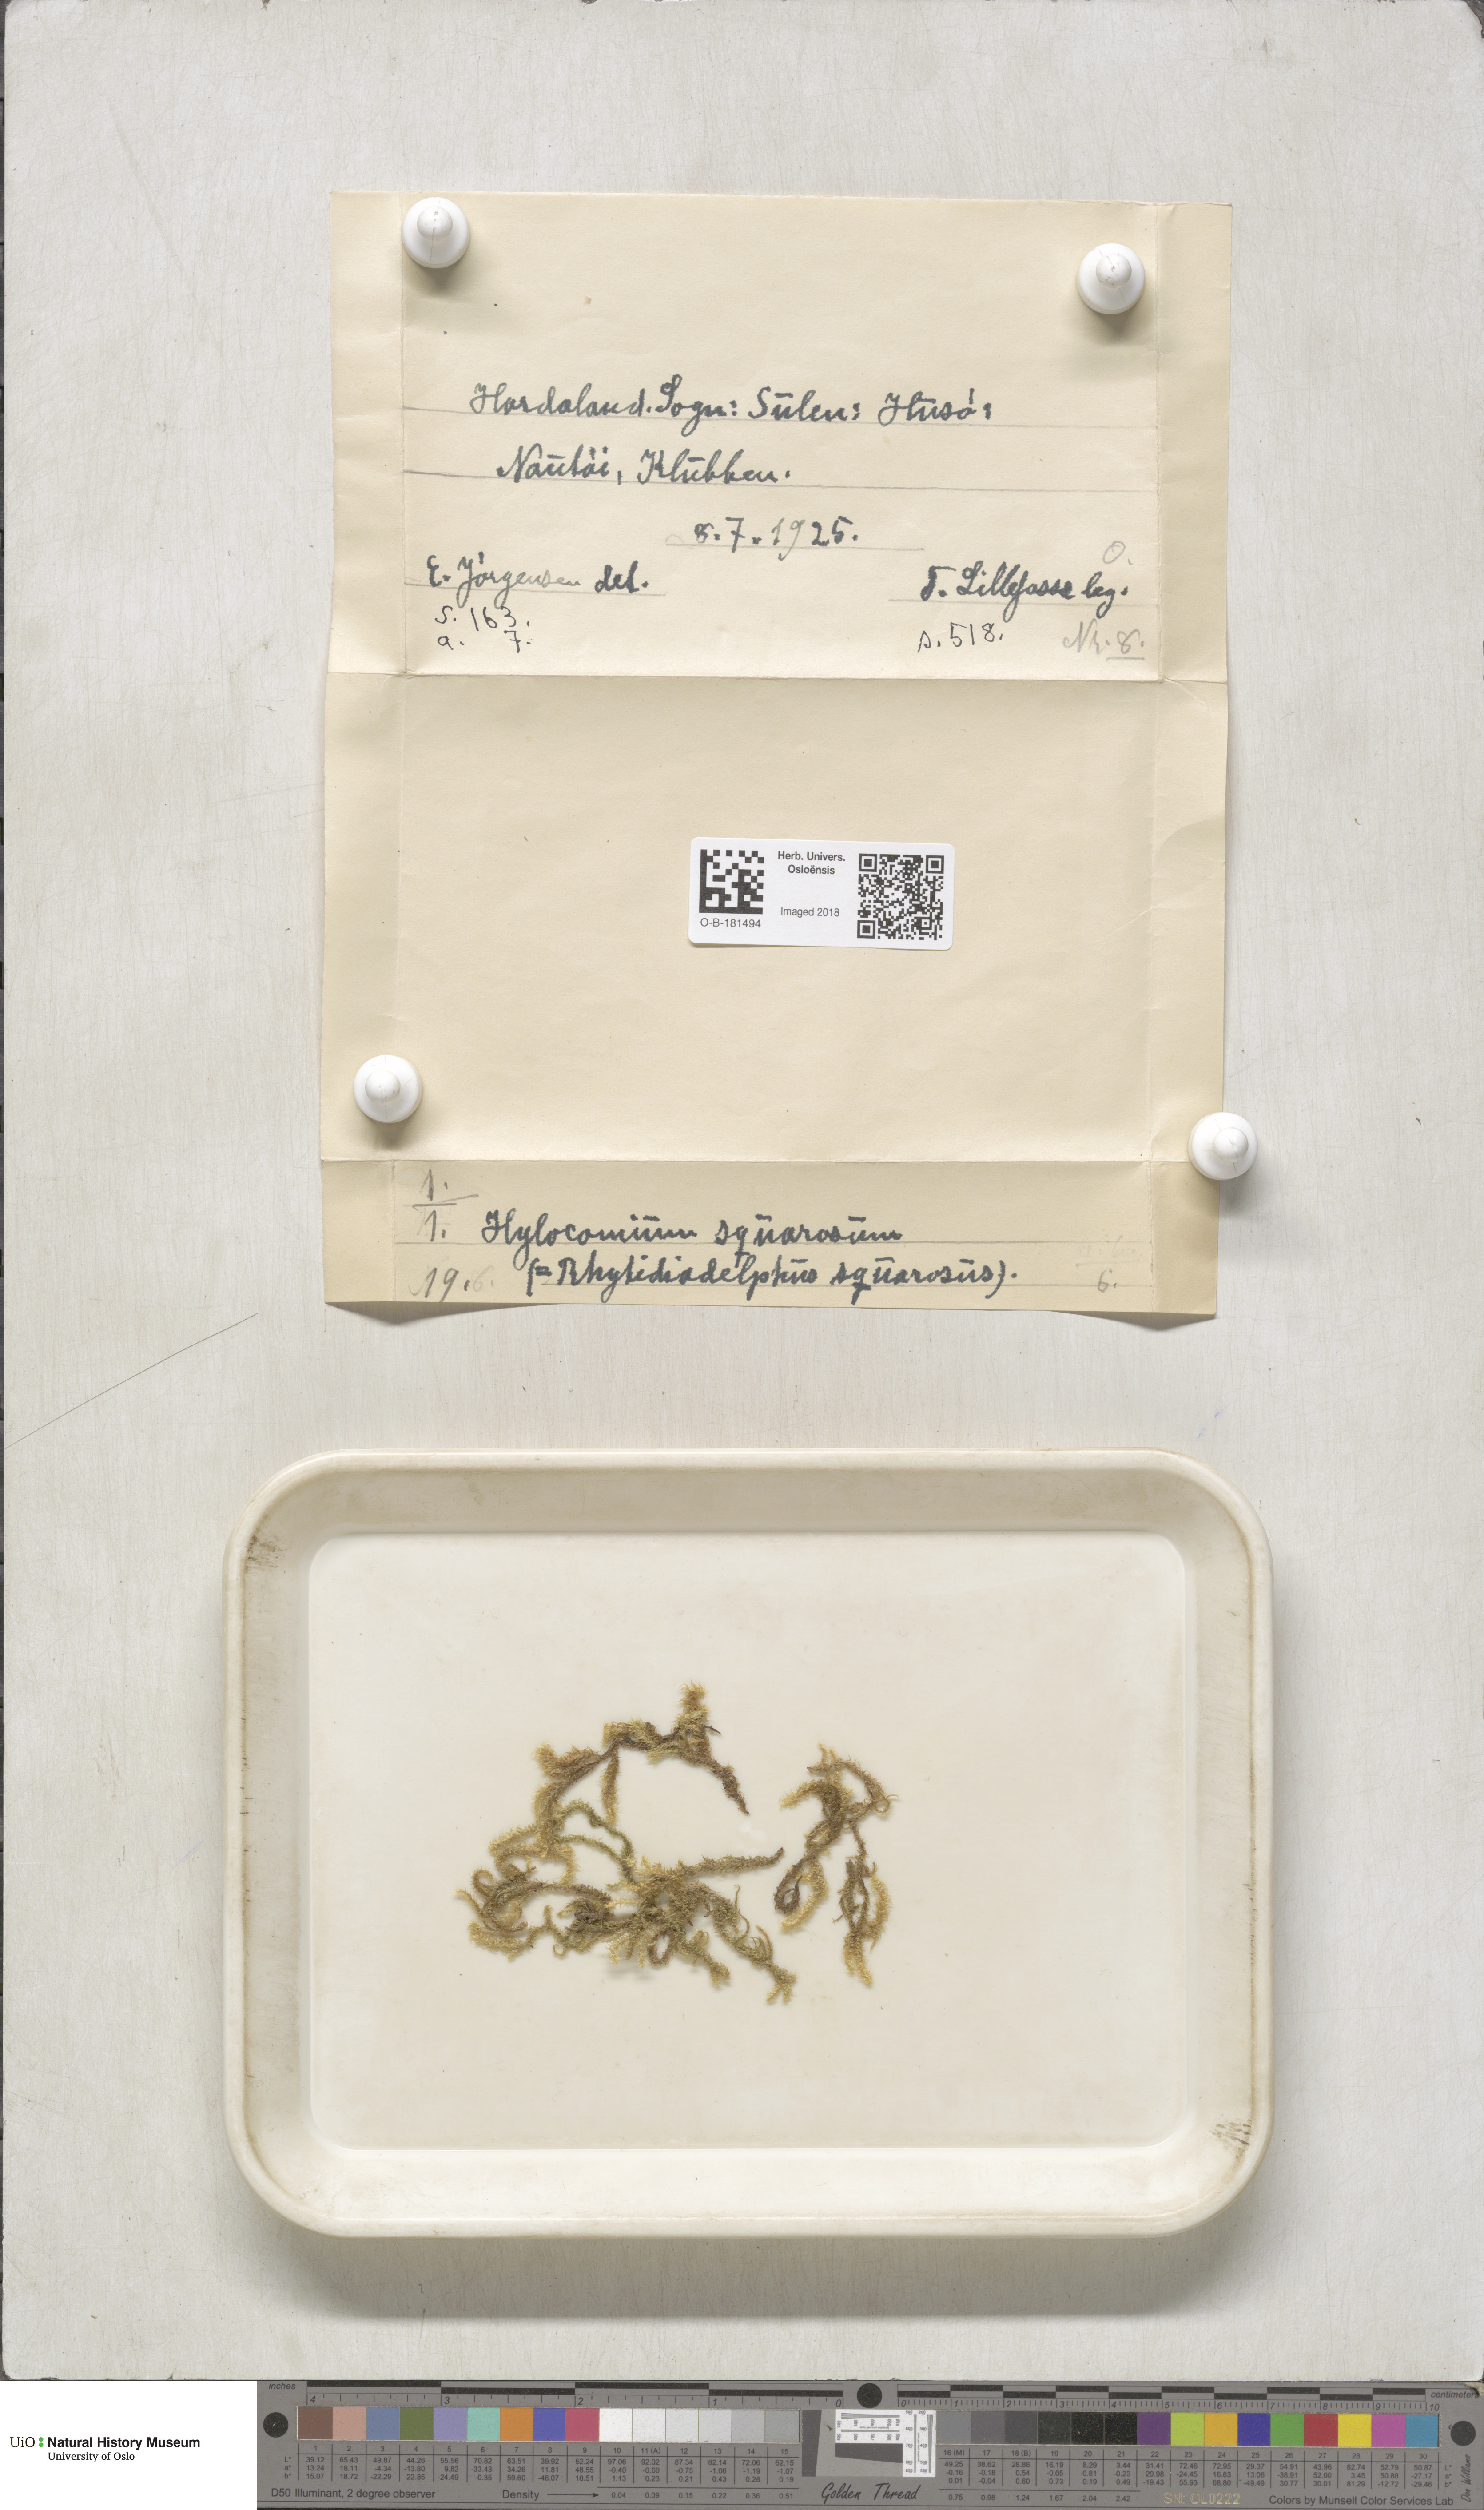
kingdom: Plantae
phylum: Bryophyta
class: Bryopsida
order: Hypnales
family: Hylocomiaceae
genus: Rhytidiadelphus
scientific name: Rhytidiadelphus squarrosus
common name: Springy turf-moss
